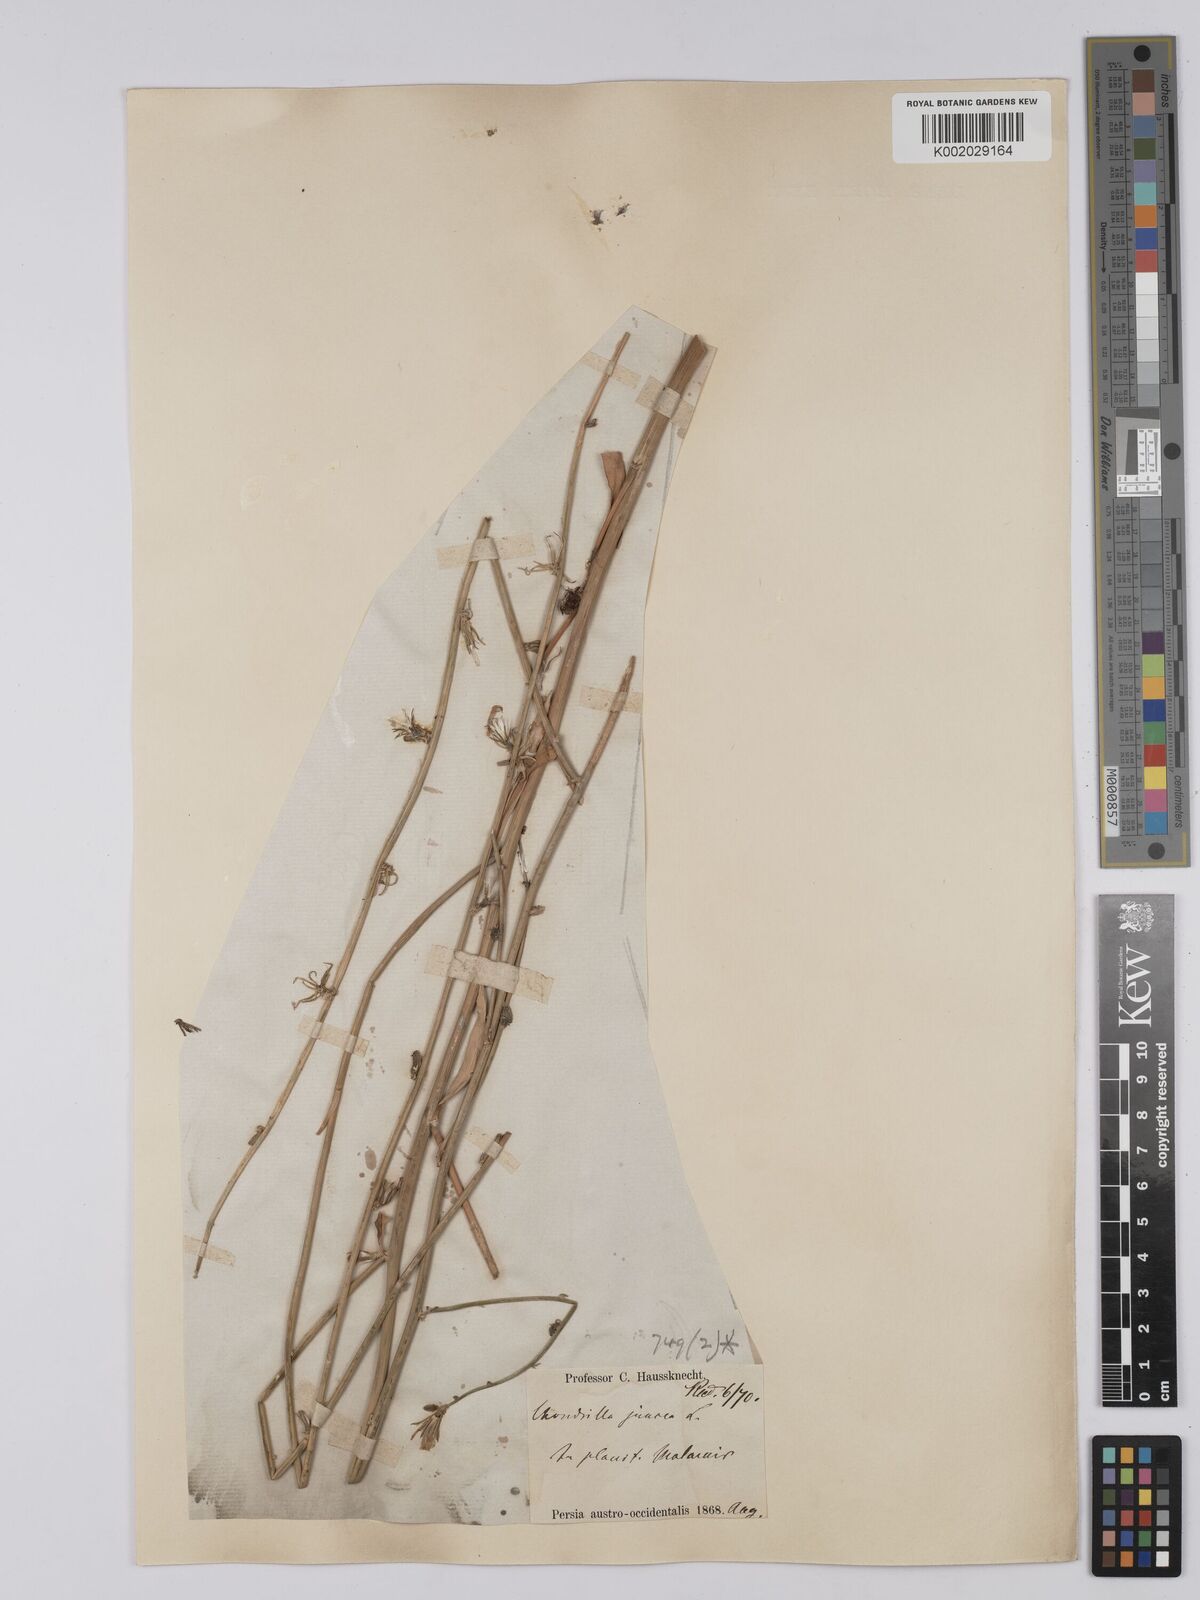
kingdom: Plantae
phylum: Tracheophyta
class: Magnoliopsida
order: Asterales
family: Asteraceae
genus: Chondrilla
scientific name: Chondrilla juncea
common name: Skeleton weed
